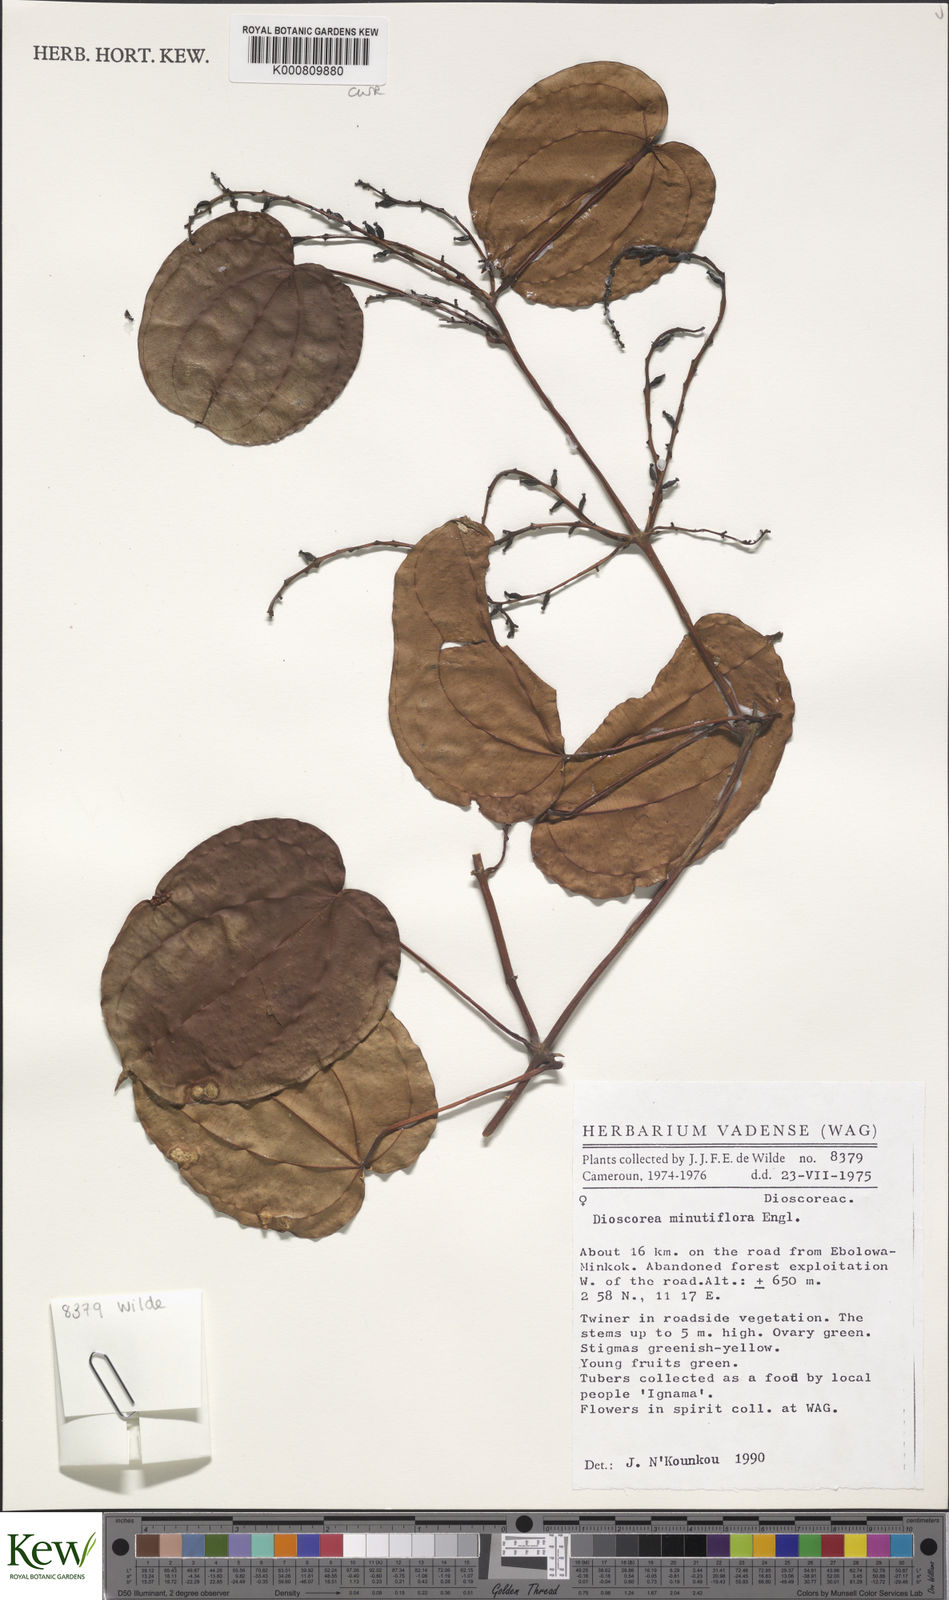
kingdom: Plantae
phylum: Tracheophyta
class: Liliopsida
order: Dioscoreales
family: Dioscoreaceae
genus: Dioscorea
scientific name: Dioscorea minutiflora
